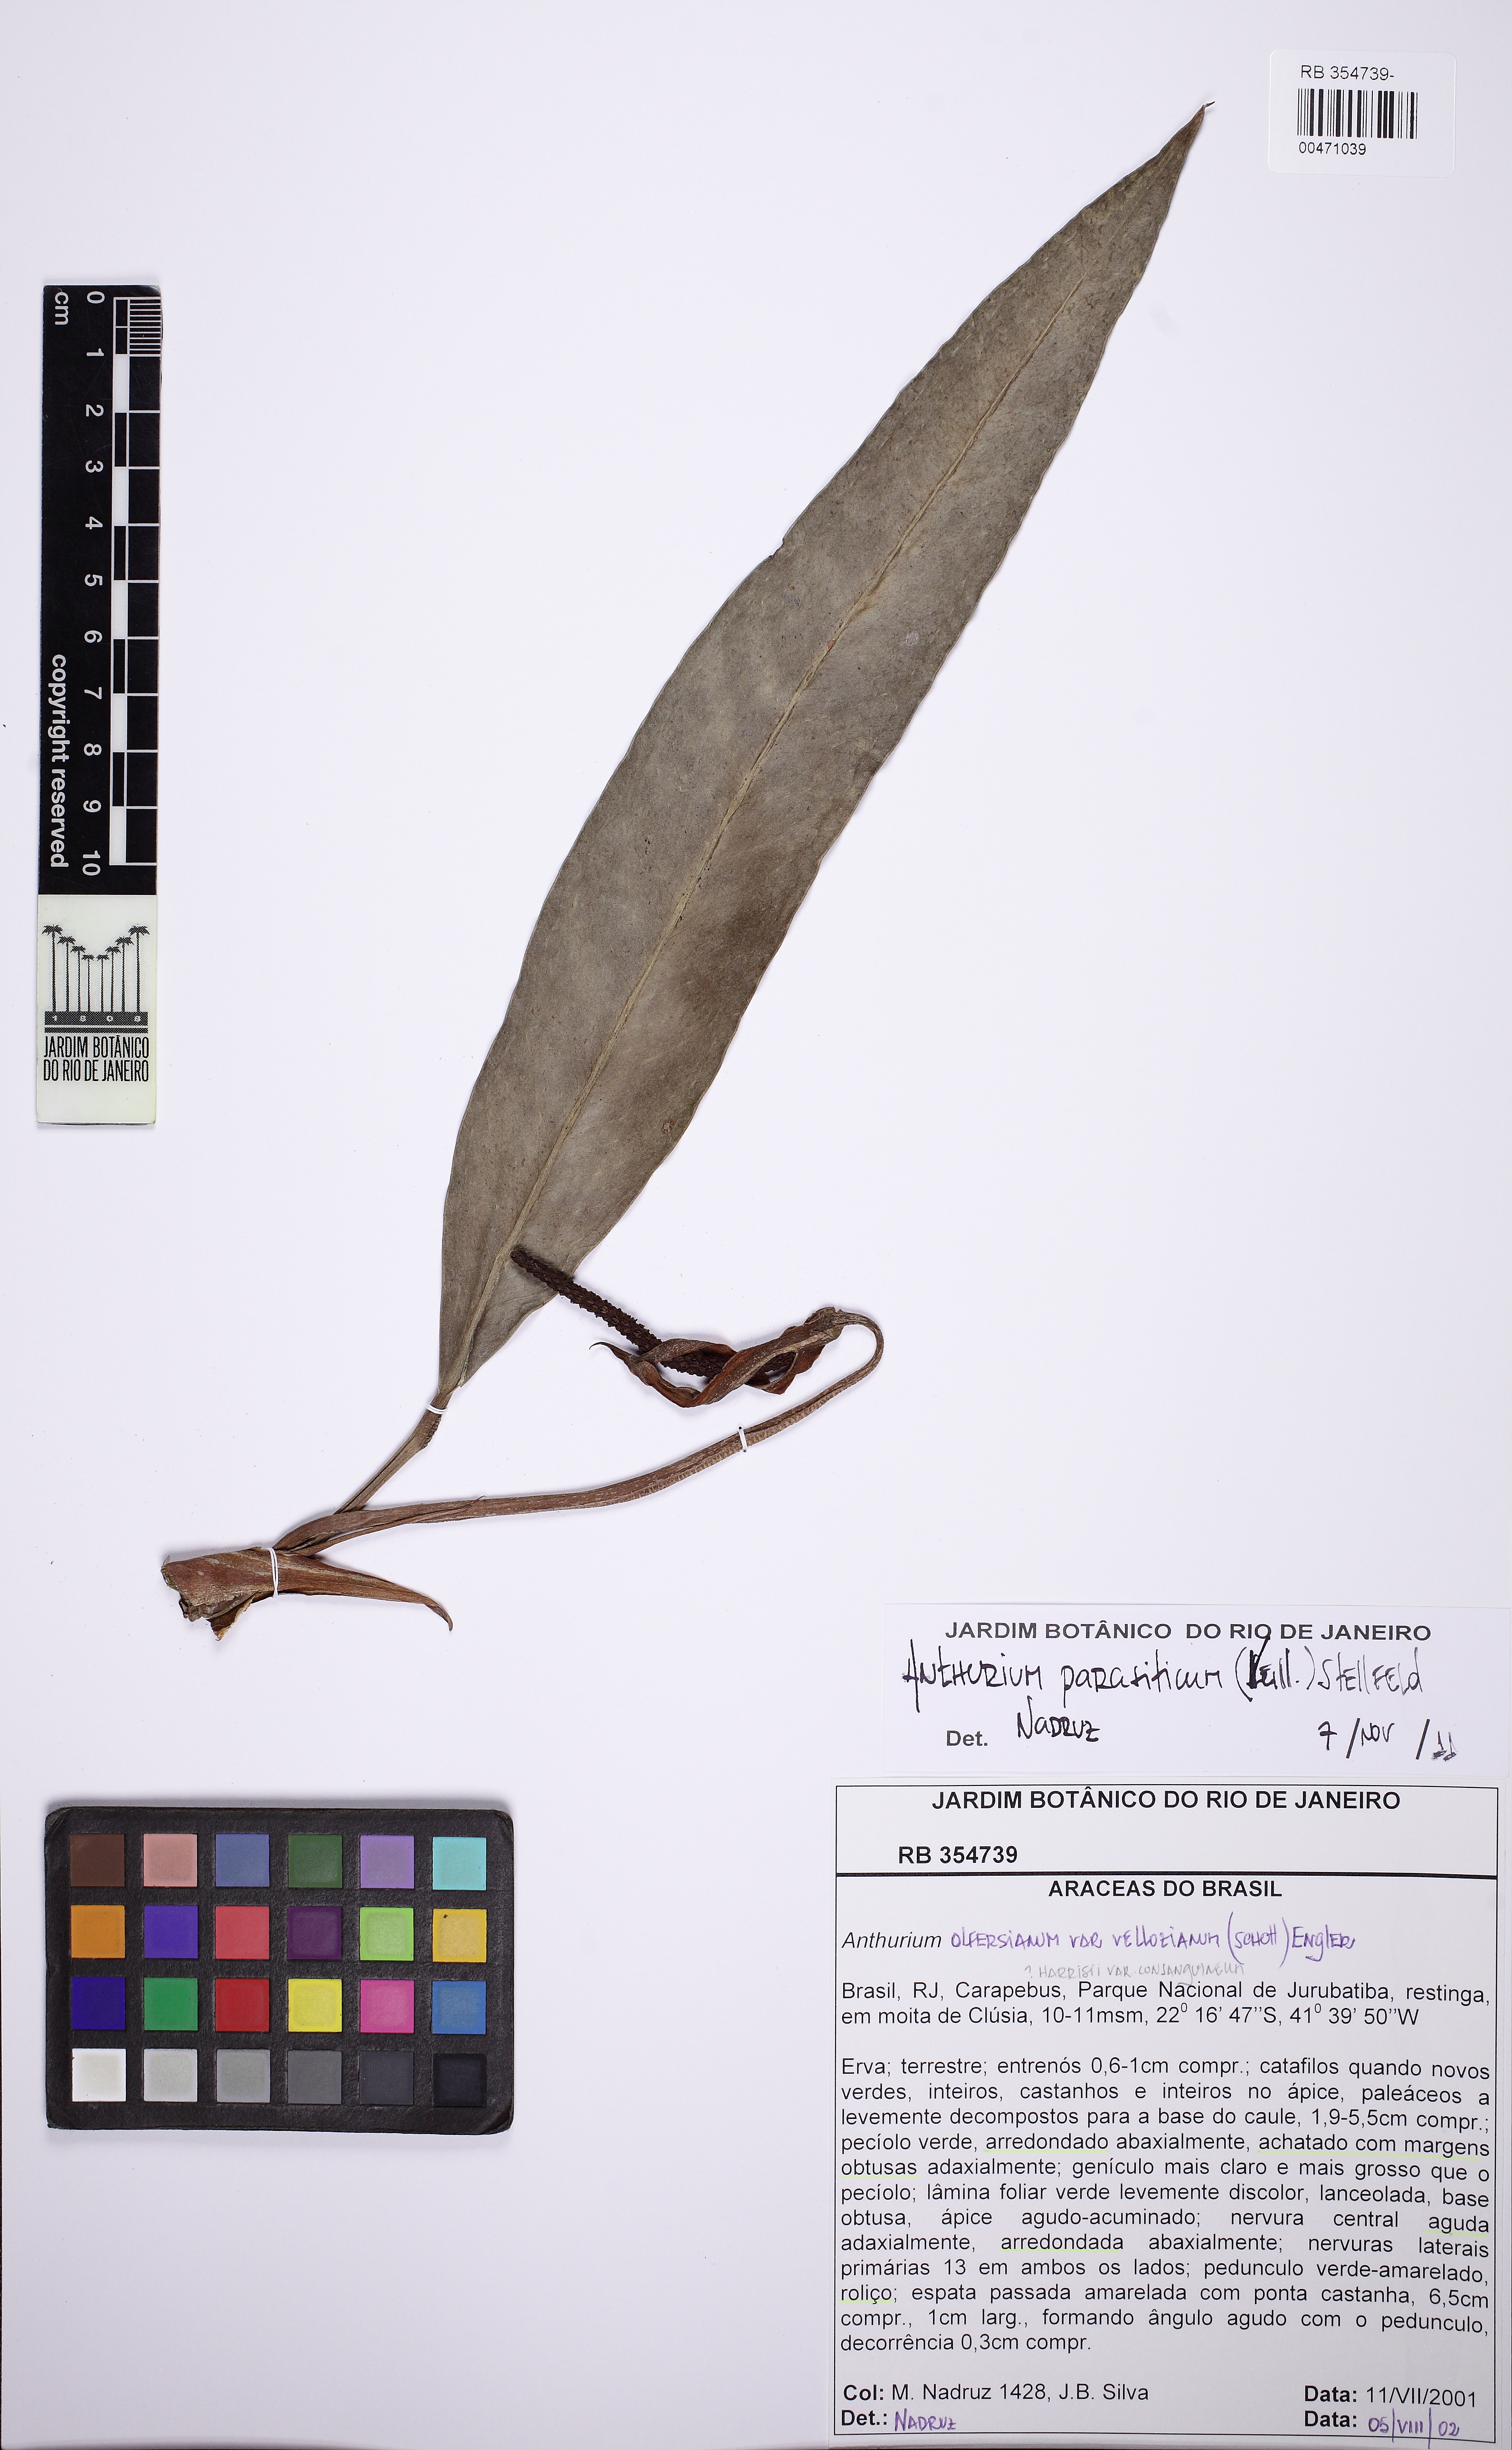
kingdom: Plantae
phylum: Tracheophyta
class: Liliopsida
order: Alismatales
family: Araceae
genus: Anthurium
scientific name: Anthurium parasiticum
